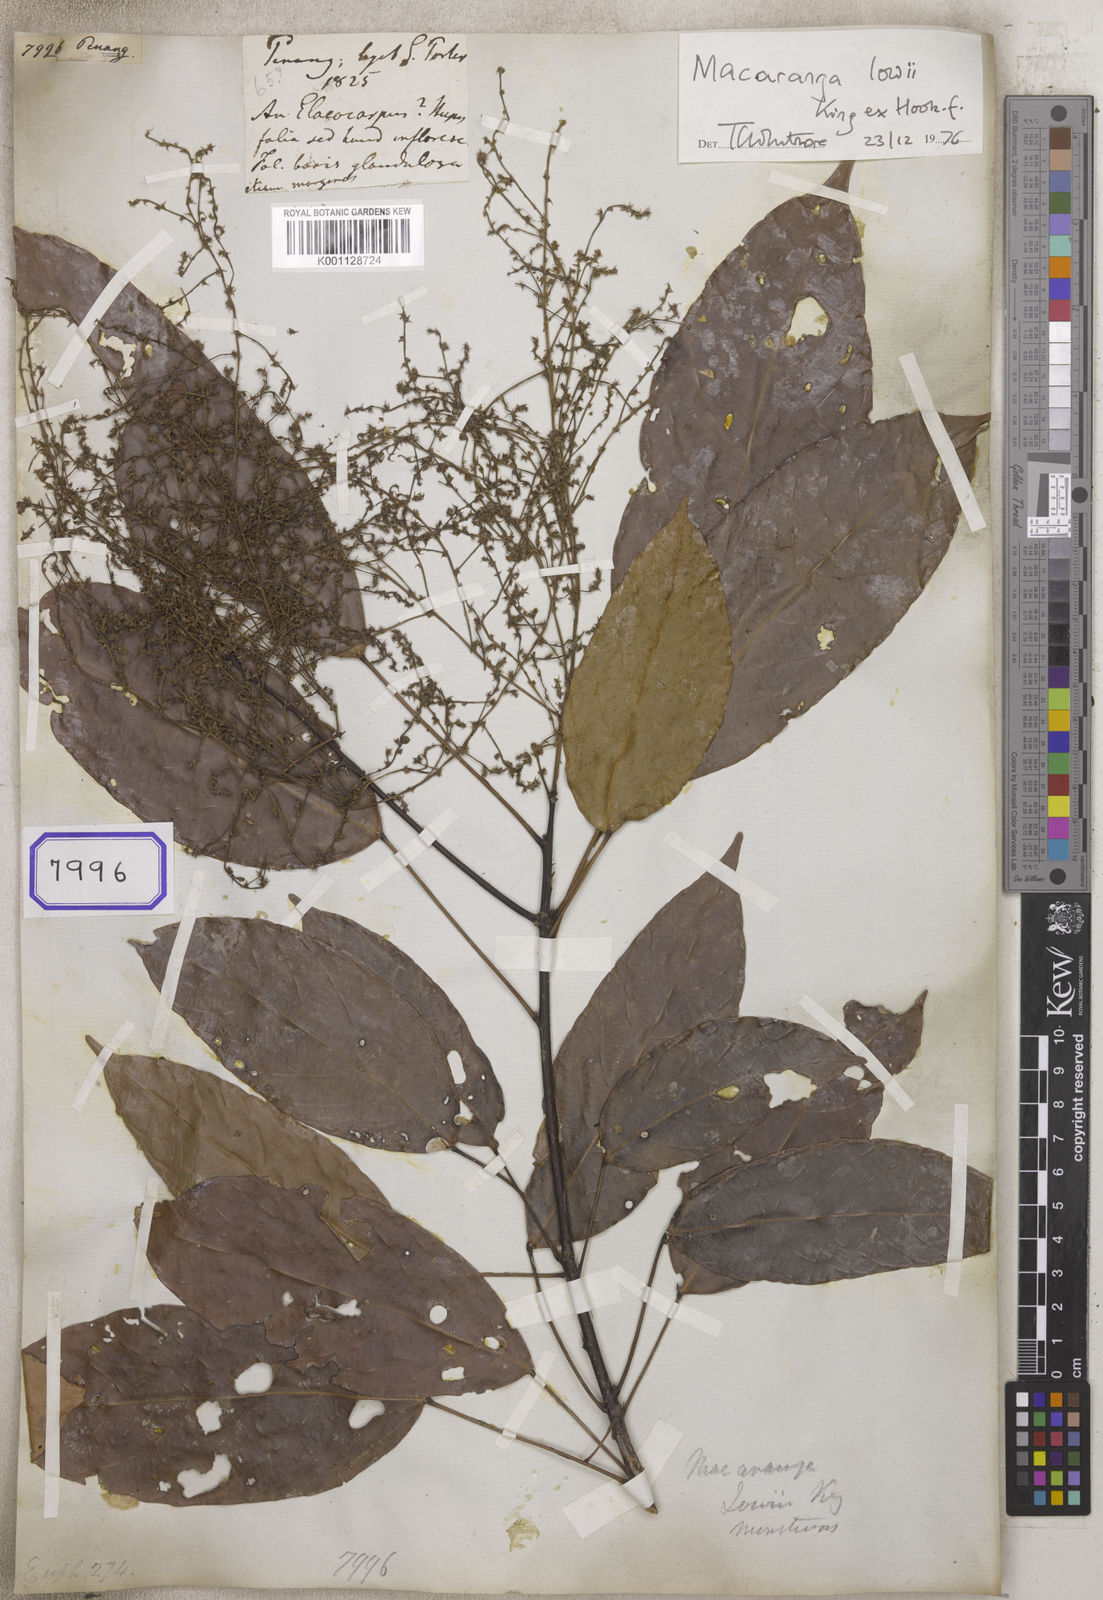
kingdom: Plantae
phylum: Tracheophyta
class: Magnoliopsida
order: Malpighiales
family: Euphorbiaceae
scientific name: Euphorbiaceae
